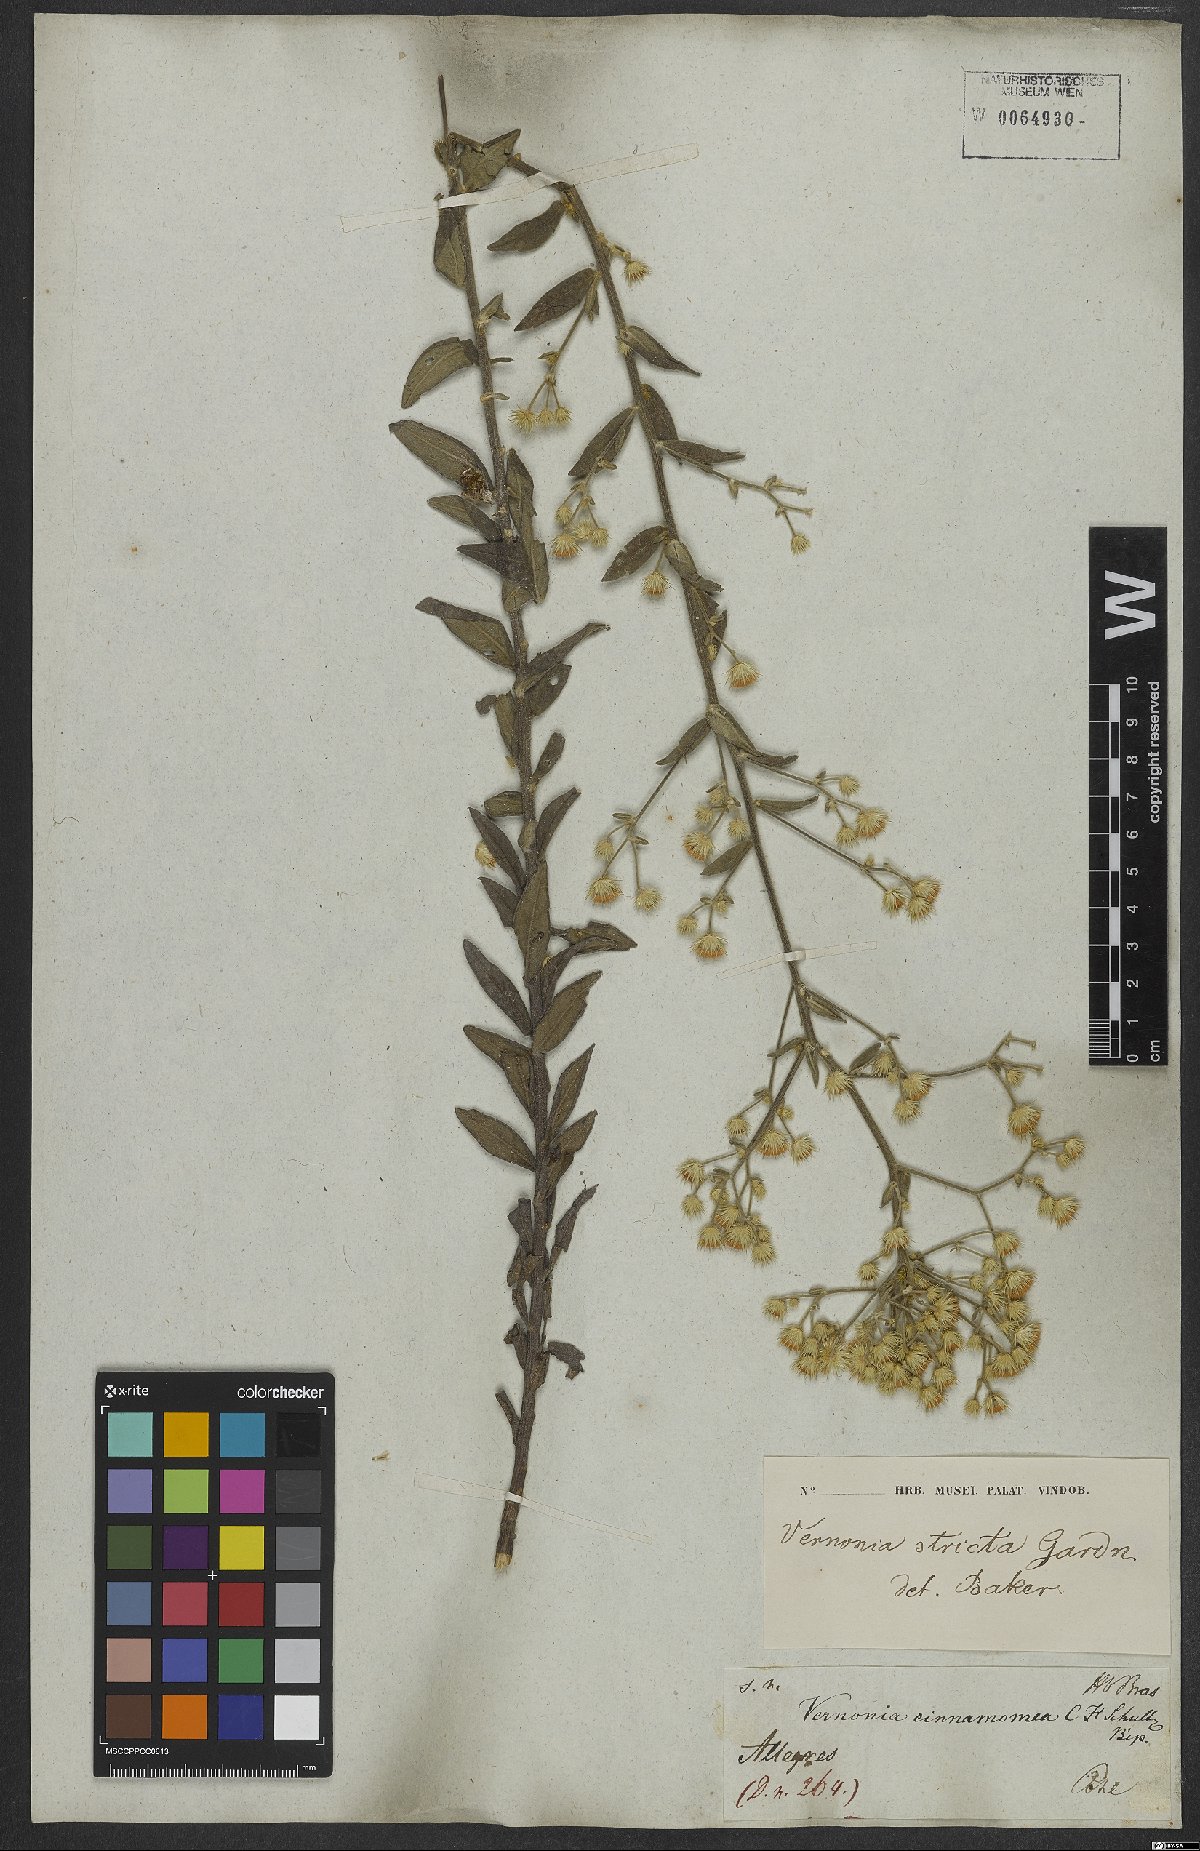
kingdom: Plantae
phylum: Tracheophyta
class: Magnoliopsida
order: Asterales
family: Asteraceae
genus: Echinocoryne
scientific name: Echinocoryne stricta
